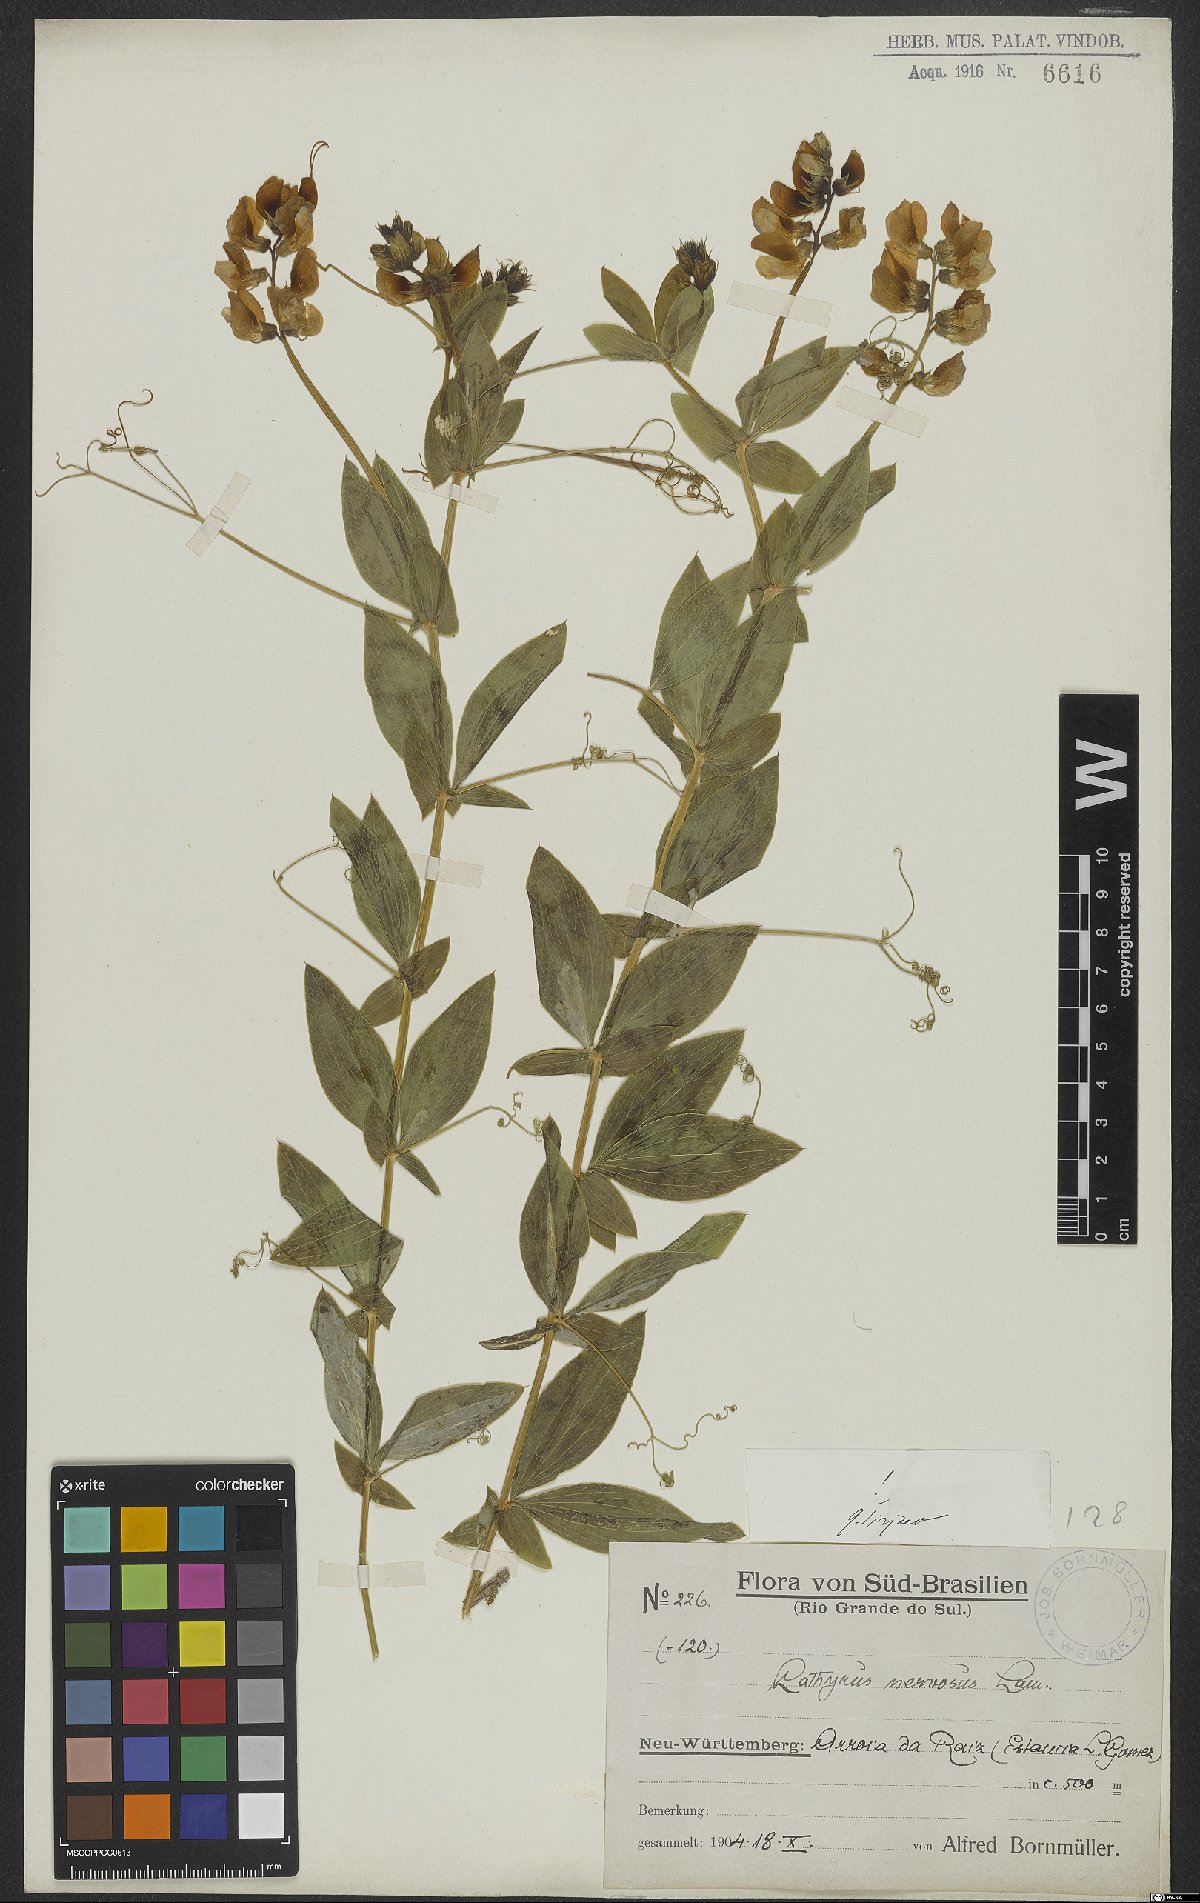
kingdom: Plantae
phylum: Tracheophyta
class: Magnoliopsida
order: Fabales
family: Fabaceae
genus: Lathyrus
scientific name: Lathyrus nervosus
